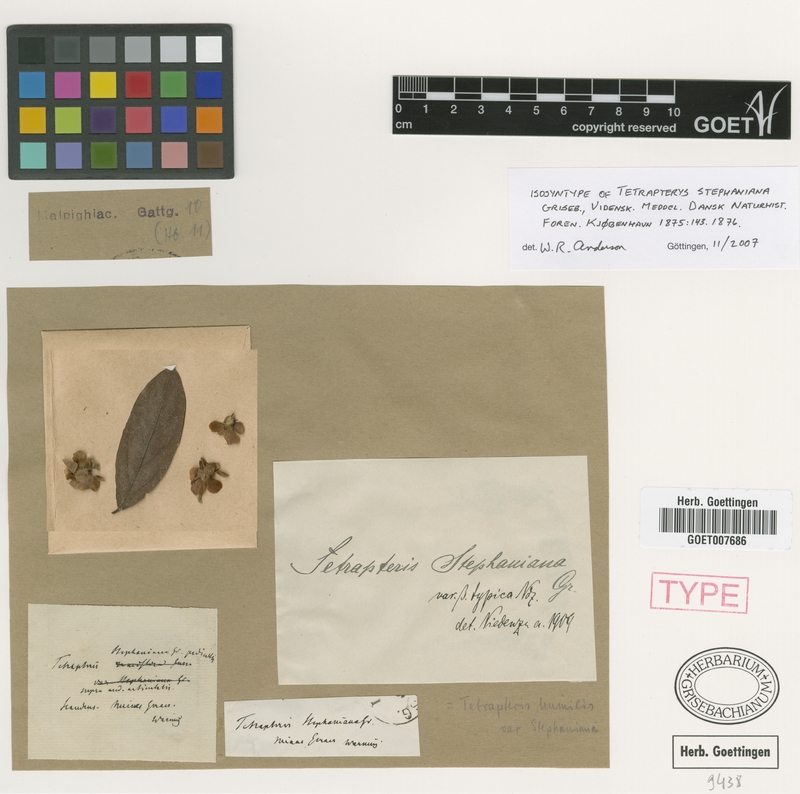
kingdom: Plantae
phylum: Tracheophyta
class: Magnoliopsida
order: Malpighiales
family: Malpighiaceae
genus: Glicophyllum
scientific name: Glicophyllum ramiflorum
